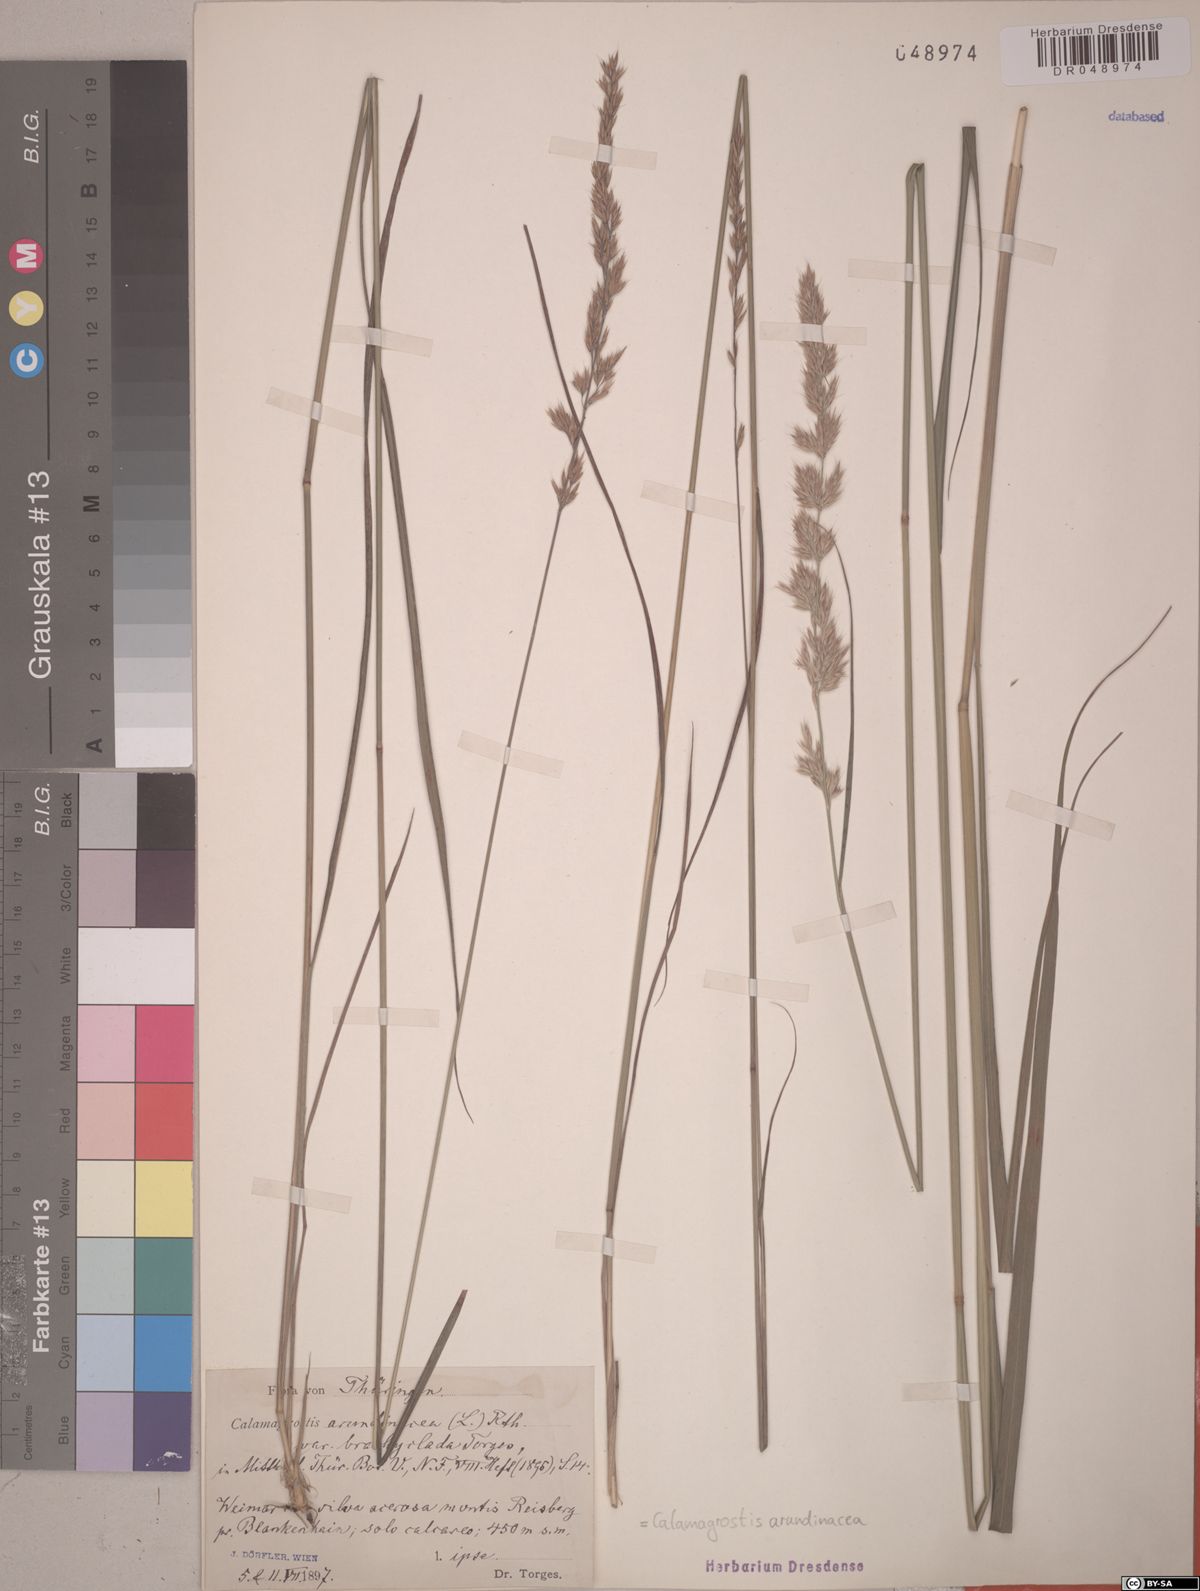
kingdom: Plantae
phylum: Tracheophyta
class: Liliopsida
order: Poales
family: Poaceae
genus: Calamagrostis
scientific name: Calamagrostis arundinacea
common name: Metskastik
